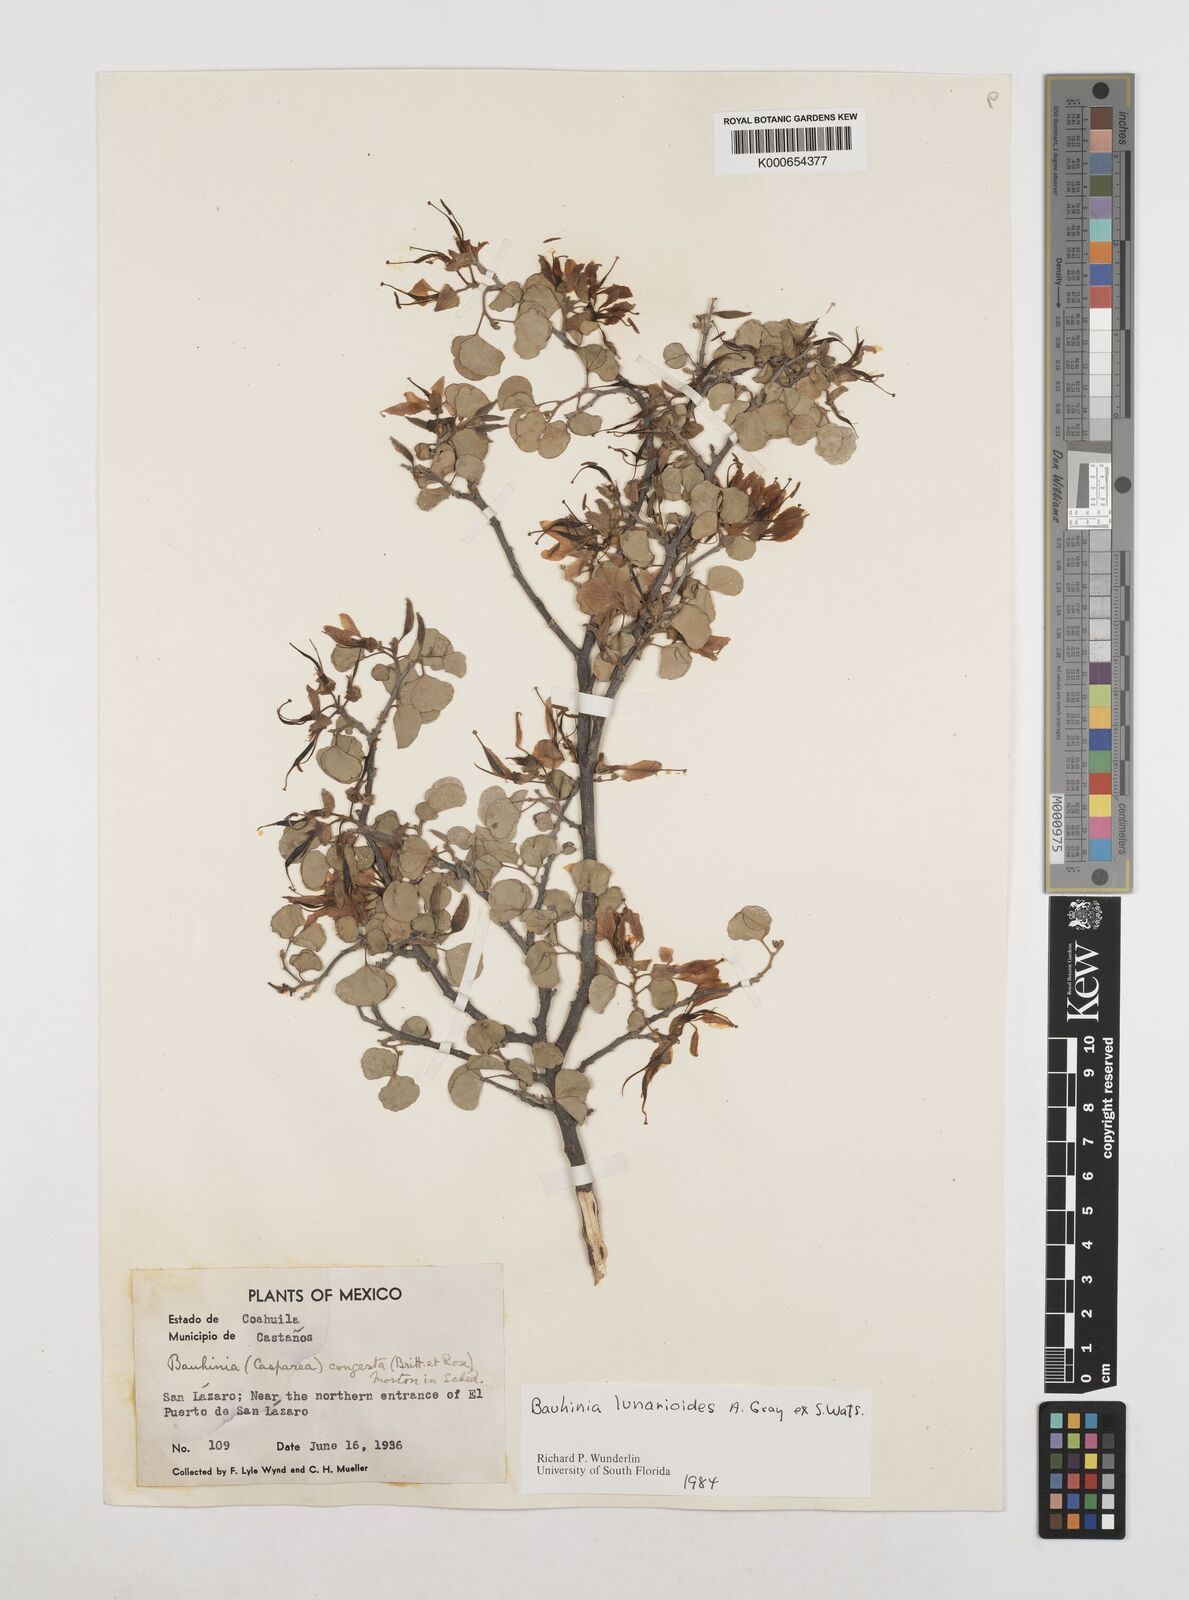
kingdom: Plantae
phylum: Tracheophyta
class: Magnoliopsida
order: Fabales
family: Fabaceae
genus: Bauhinia
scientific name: Bauhinia lunarioides
